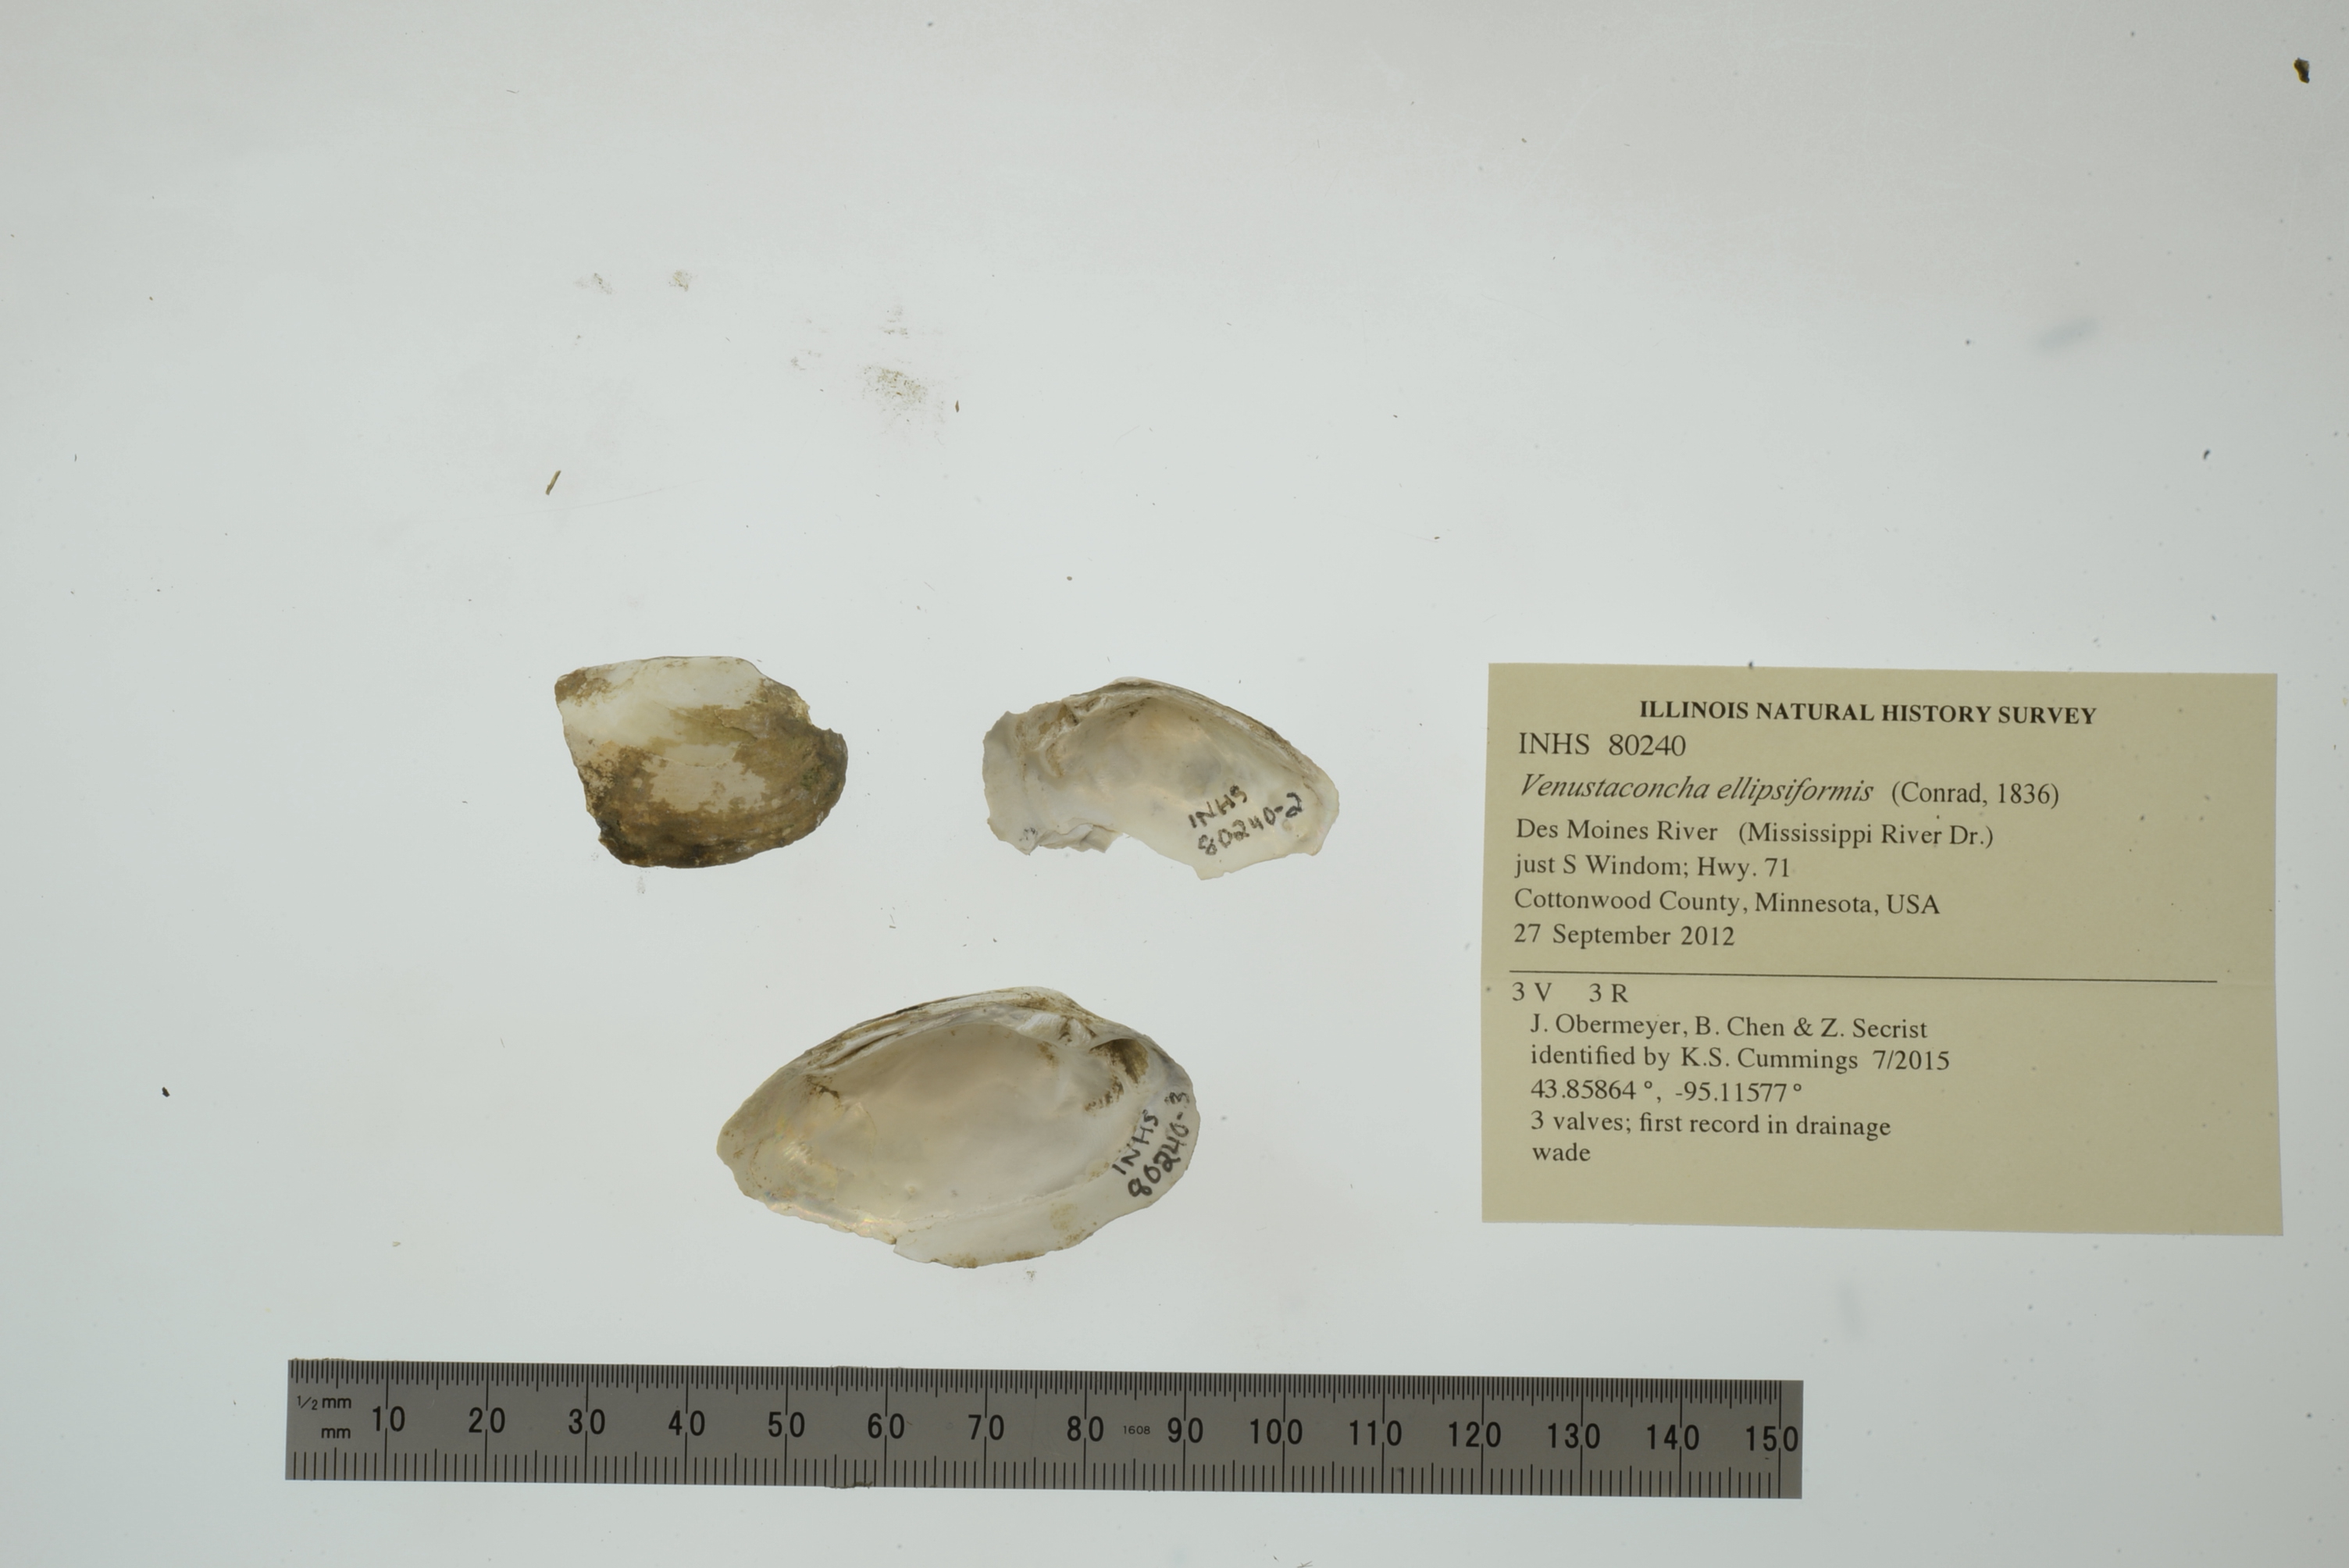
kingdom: Animalia
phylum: Mollusca
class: Bivalvia
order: Unionida
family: Unionidae
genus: Venustaconcha
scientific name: Venustaconcha ellipsiformis
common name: Ellipse
